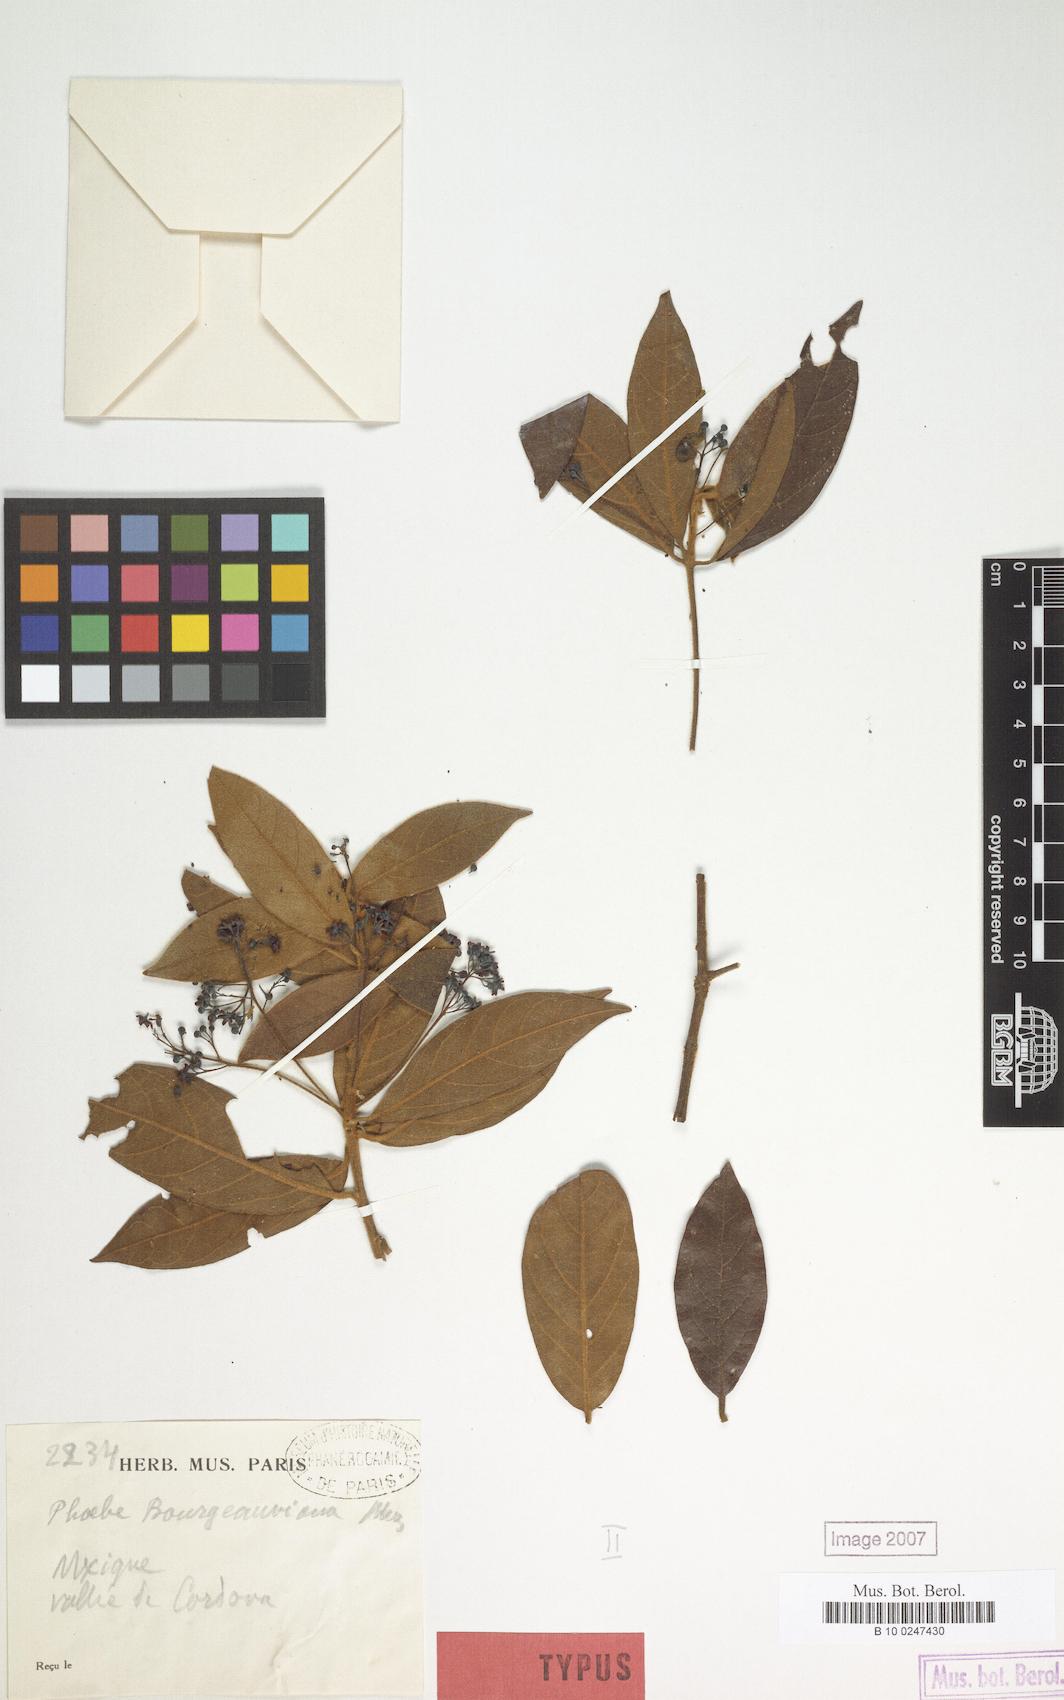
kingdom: Plantae
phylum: Tracheophyta
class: Magnoliopsida
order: Laurales
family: Lauraceae
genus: Ocotea
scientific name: Ocotea bourgeauviana
